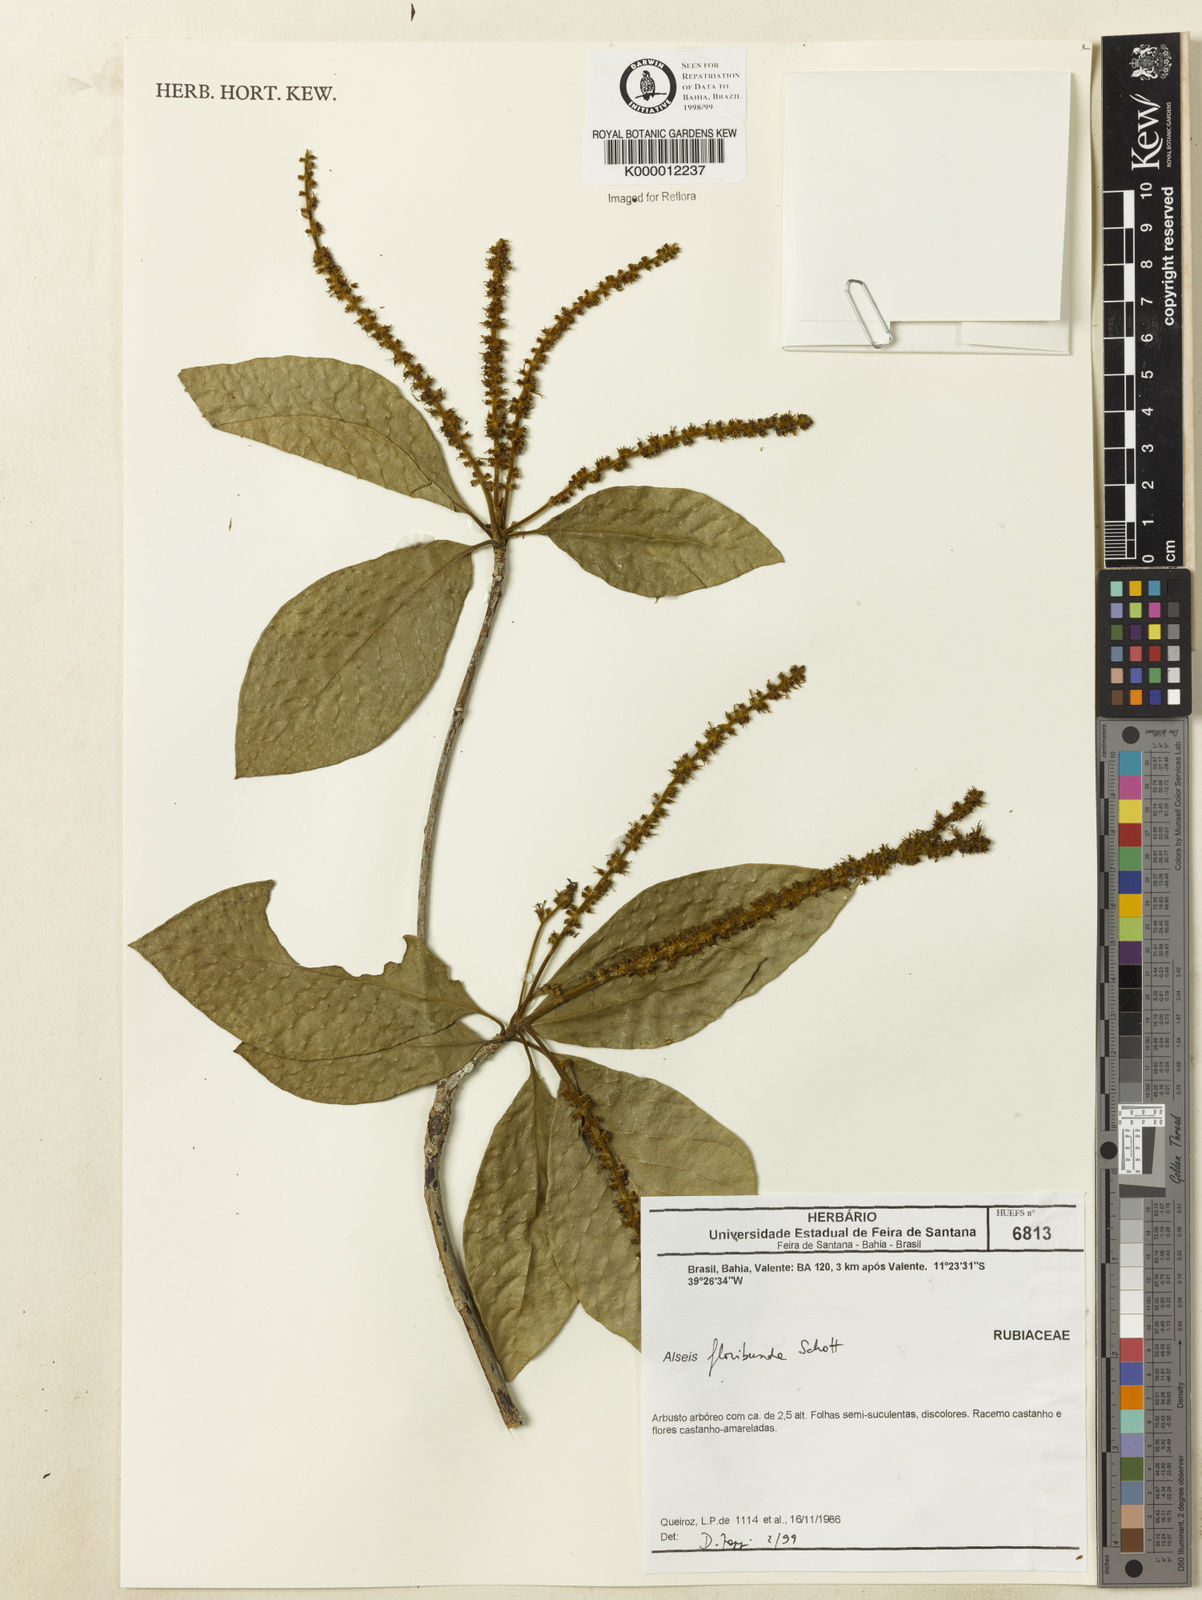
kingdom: Plantae
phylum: Tracheophyta
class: Magnoliopsida
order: Gentianales
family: Rubiaceae
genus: Alseis
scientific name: Alseis floribunda
